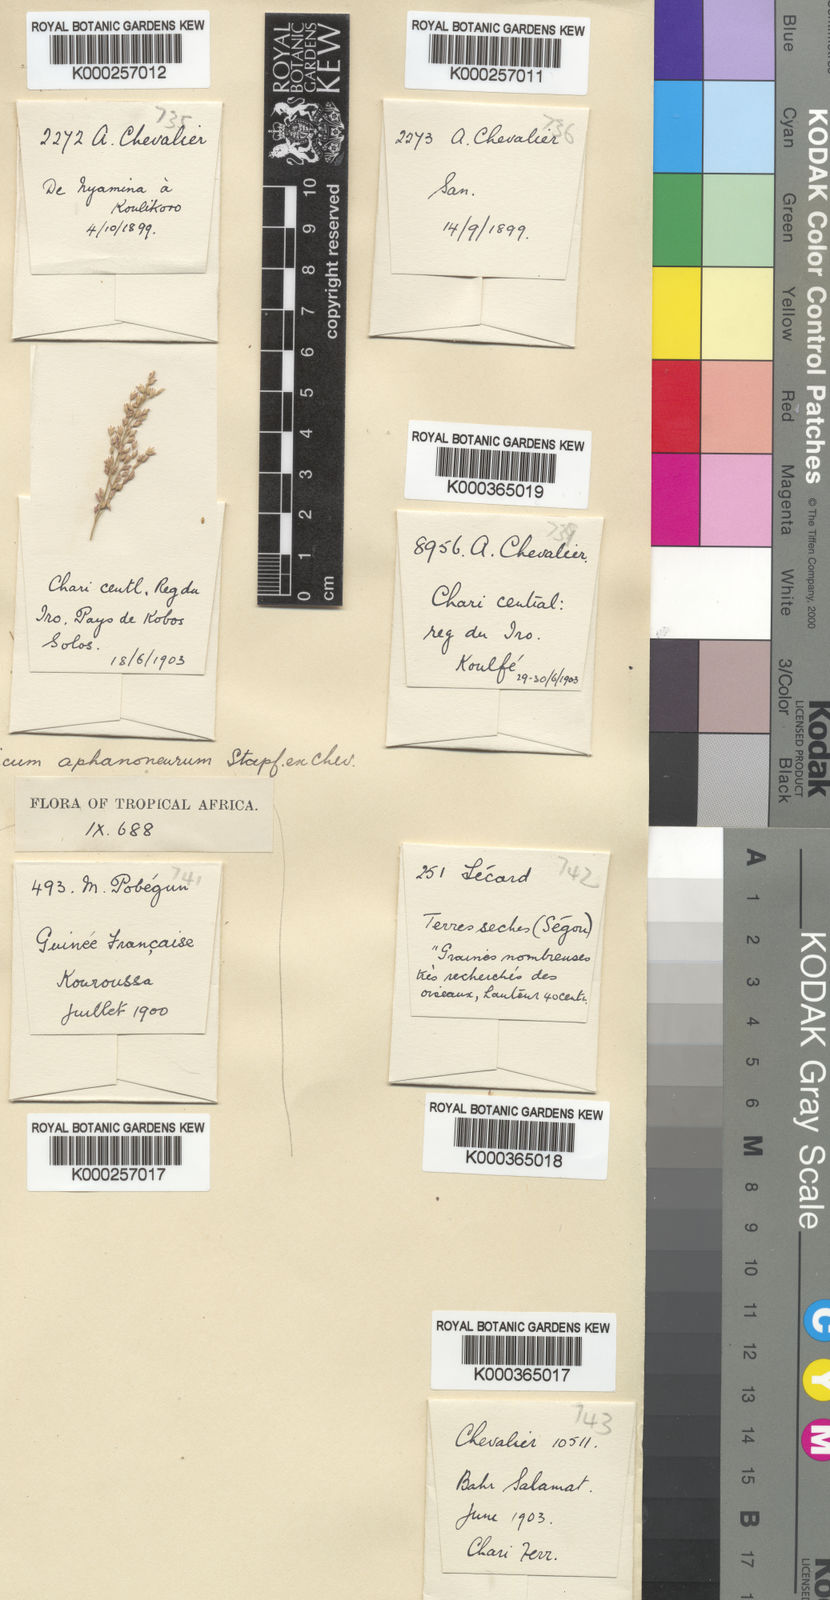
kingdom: Plantae
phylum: Tracheophyta
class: Liliopsida
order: Poales
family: Poaceae
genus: Panicum
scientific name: Panicum fluviicola
